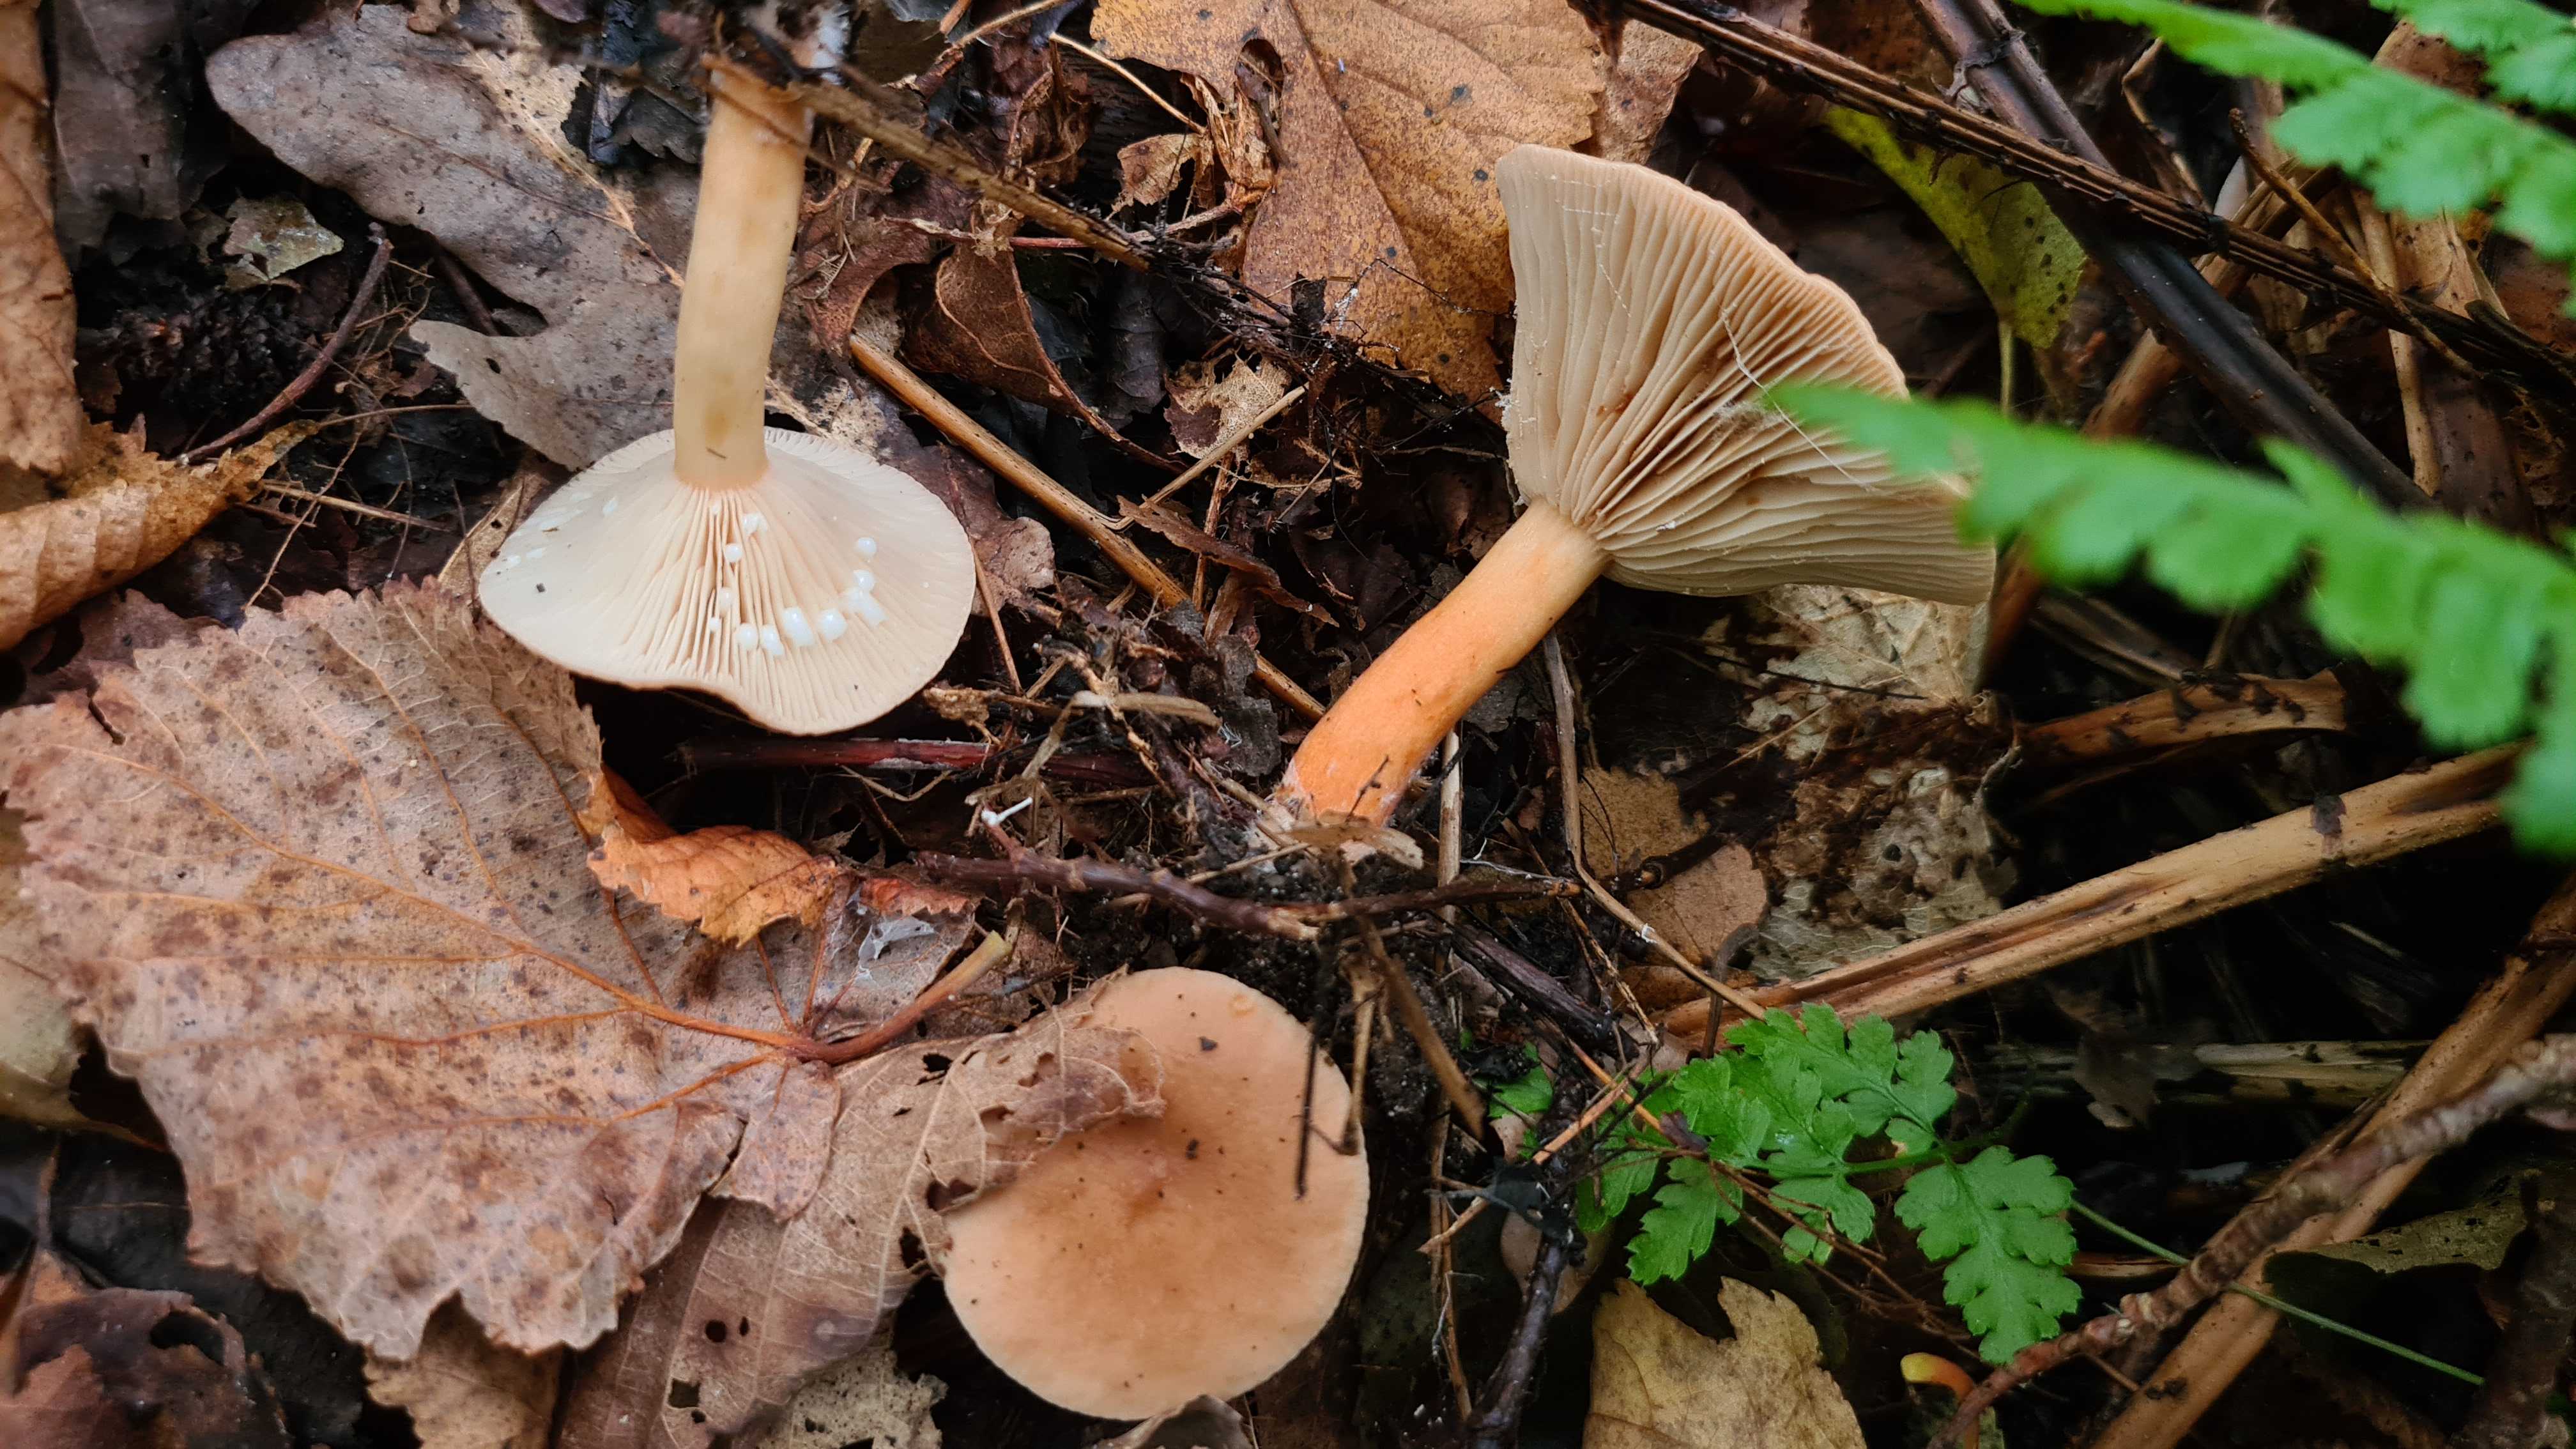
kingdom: Fungi
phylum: Basidiomycota
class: Agaricomycetes
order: Russulales
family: Russulaceae
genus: Lactarius
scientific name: Lactarius subdulcis
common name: sødlig mælkehat
